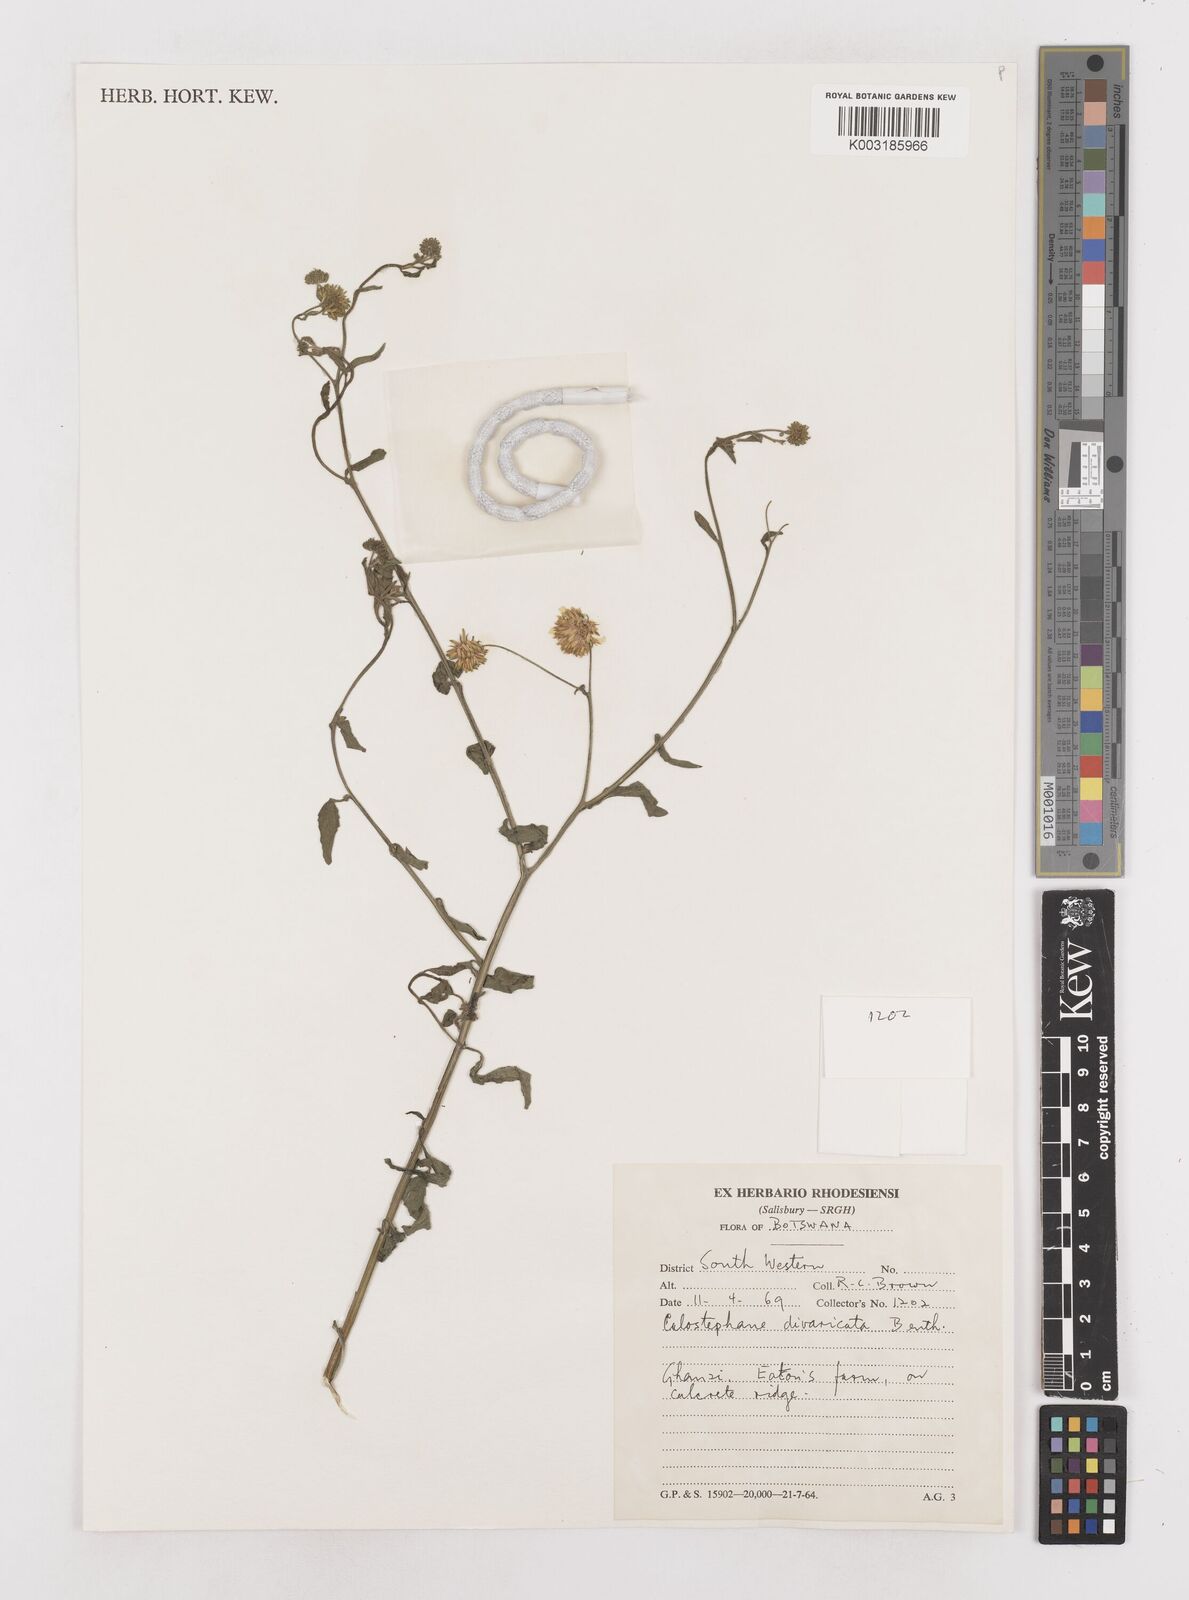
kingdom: Plantae
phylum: Tracheophyta
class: Magnoliopsida
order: Asterales
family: Asteraceae
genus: Calostephane
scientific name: Calostephane divaricata
